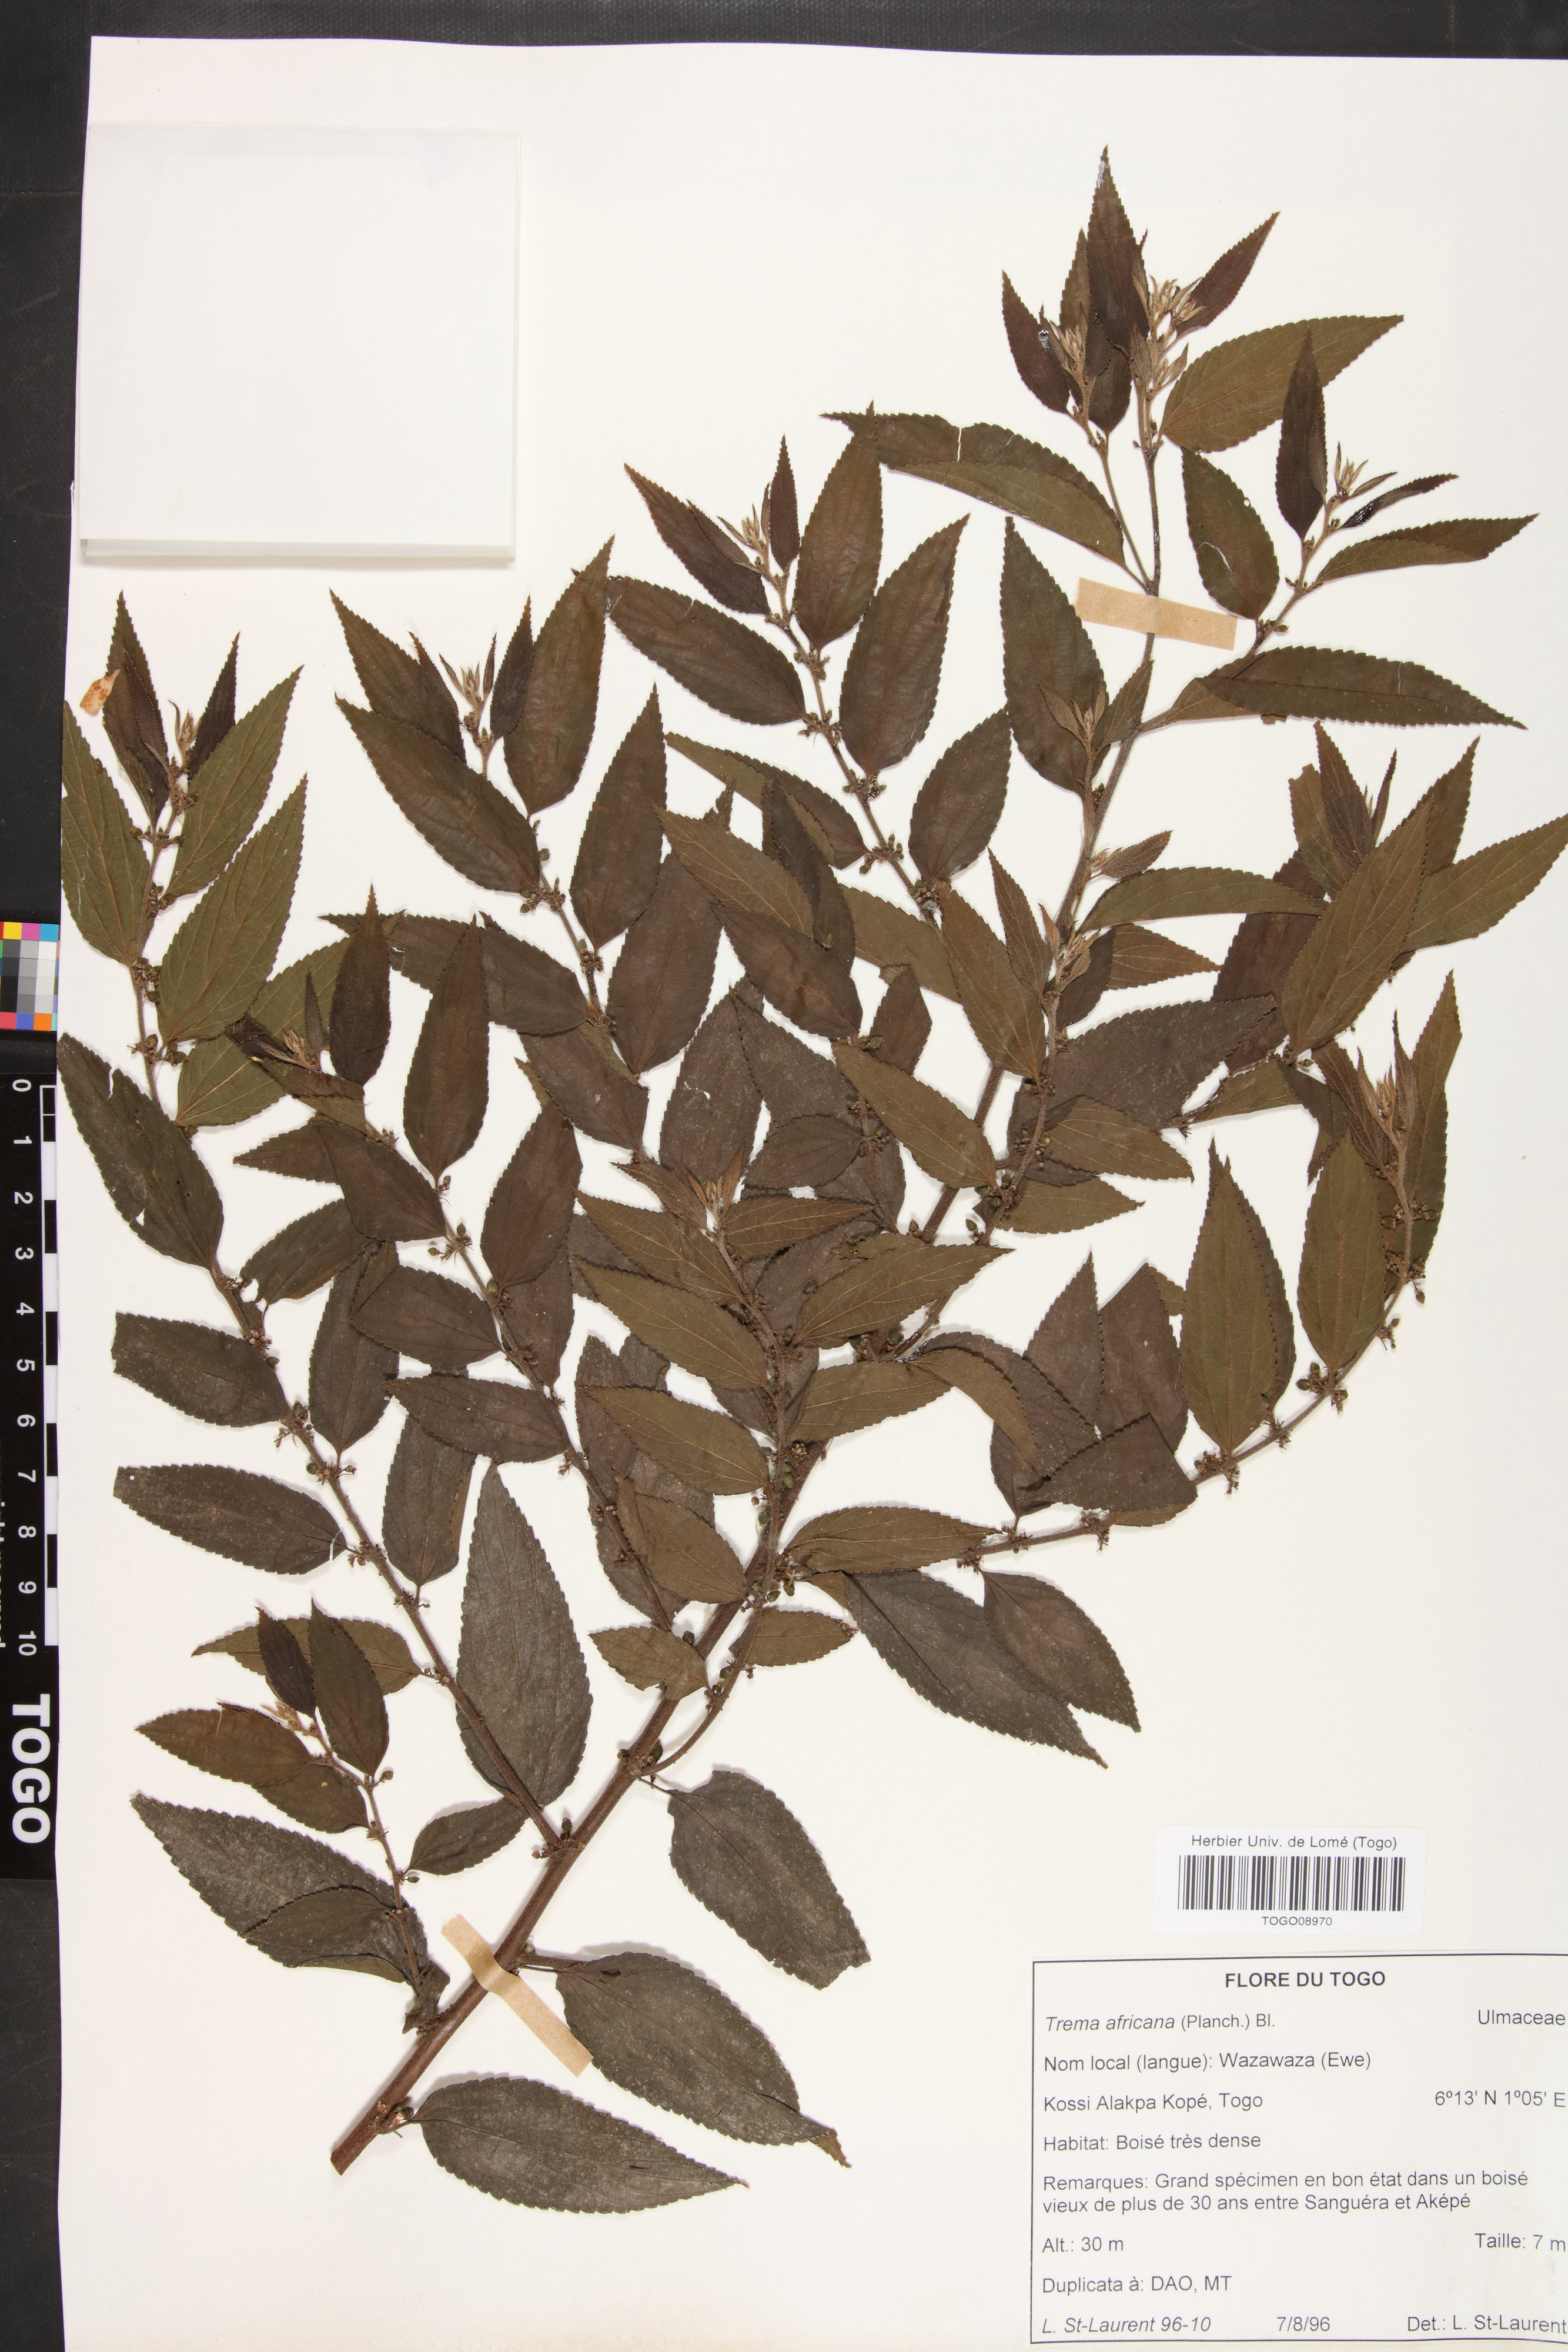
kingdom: Plantae
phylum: Tracheophyta
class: Magnoliopsida
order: Rosales
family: Cannabaceae
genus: Trema
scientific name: Trema orientale
